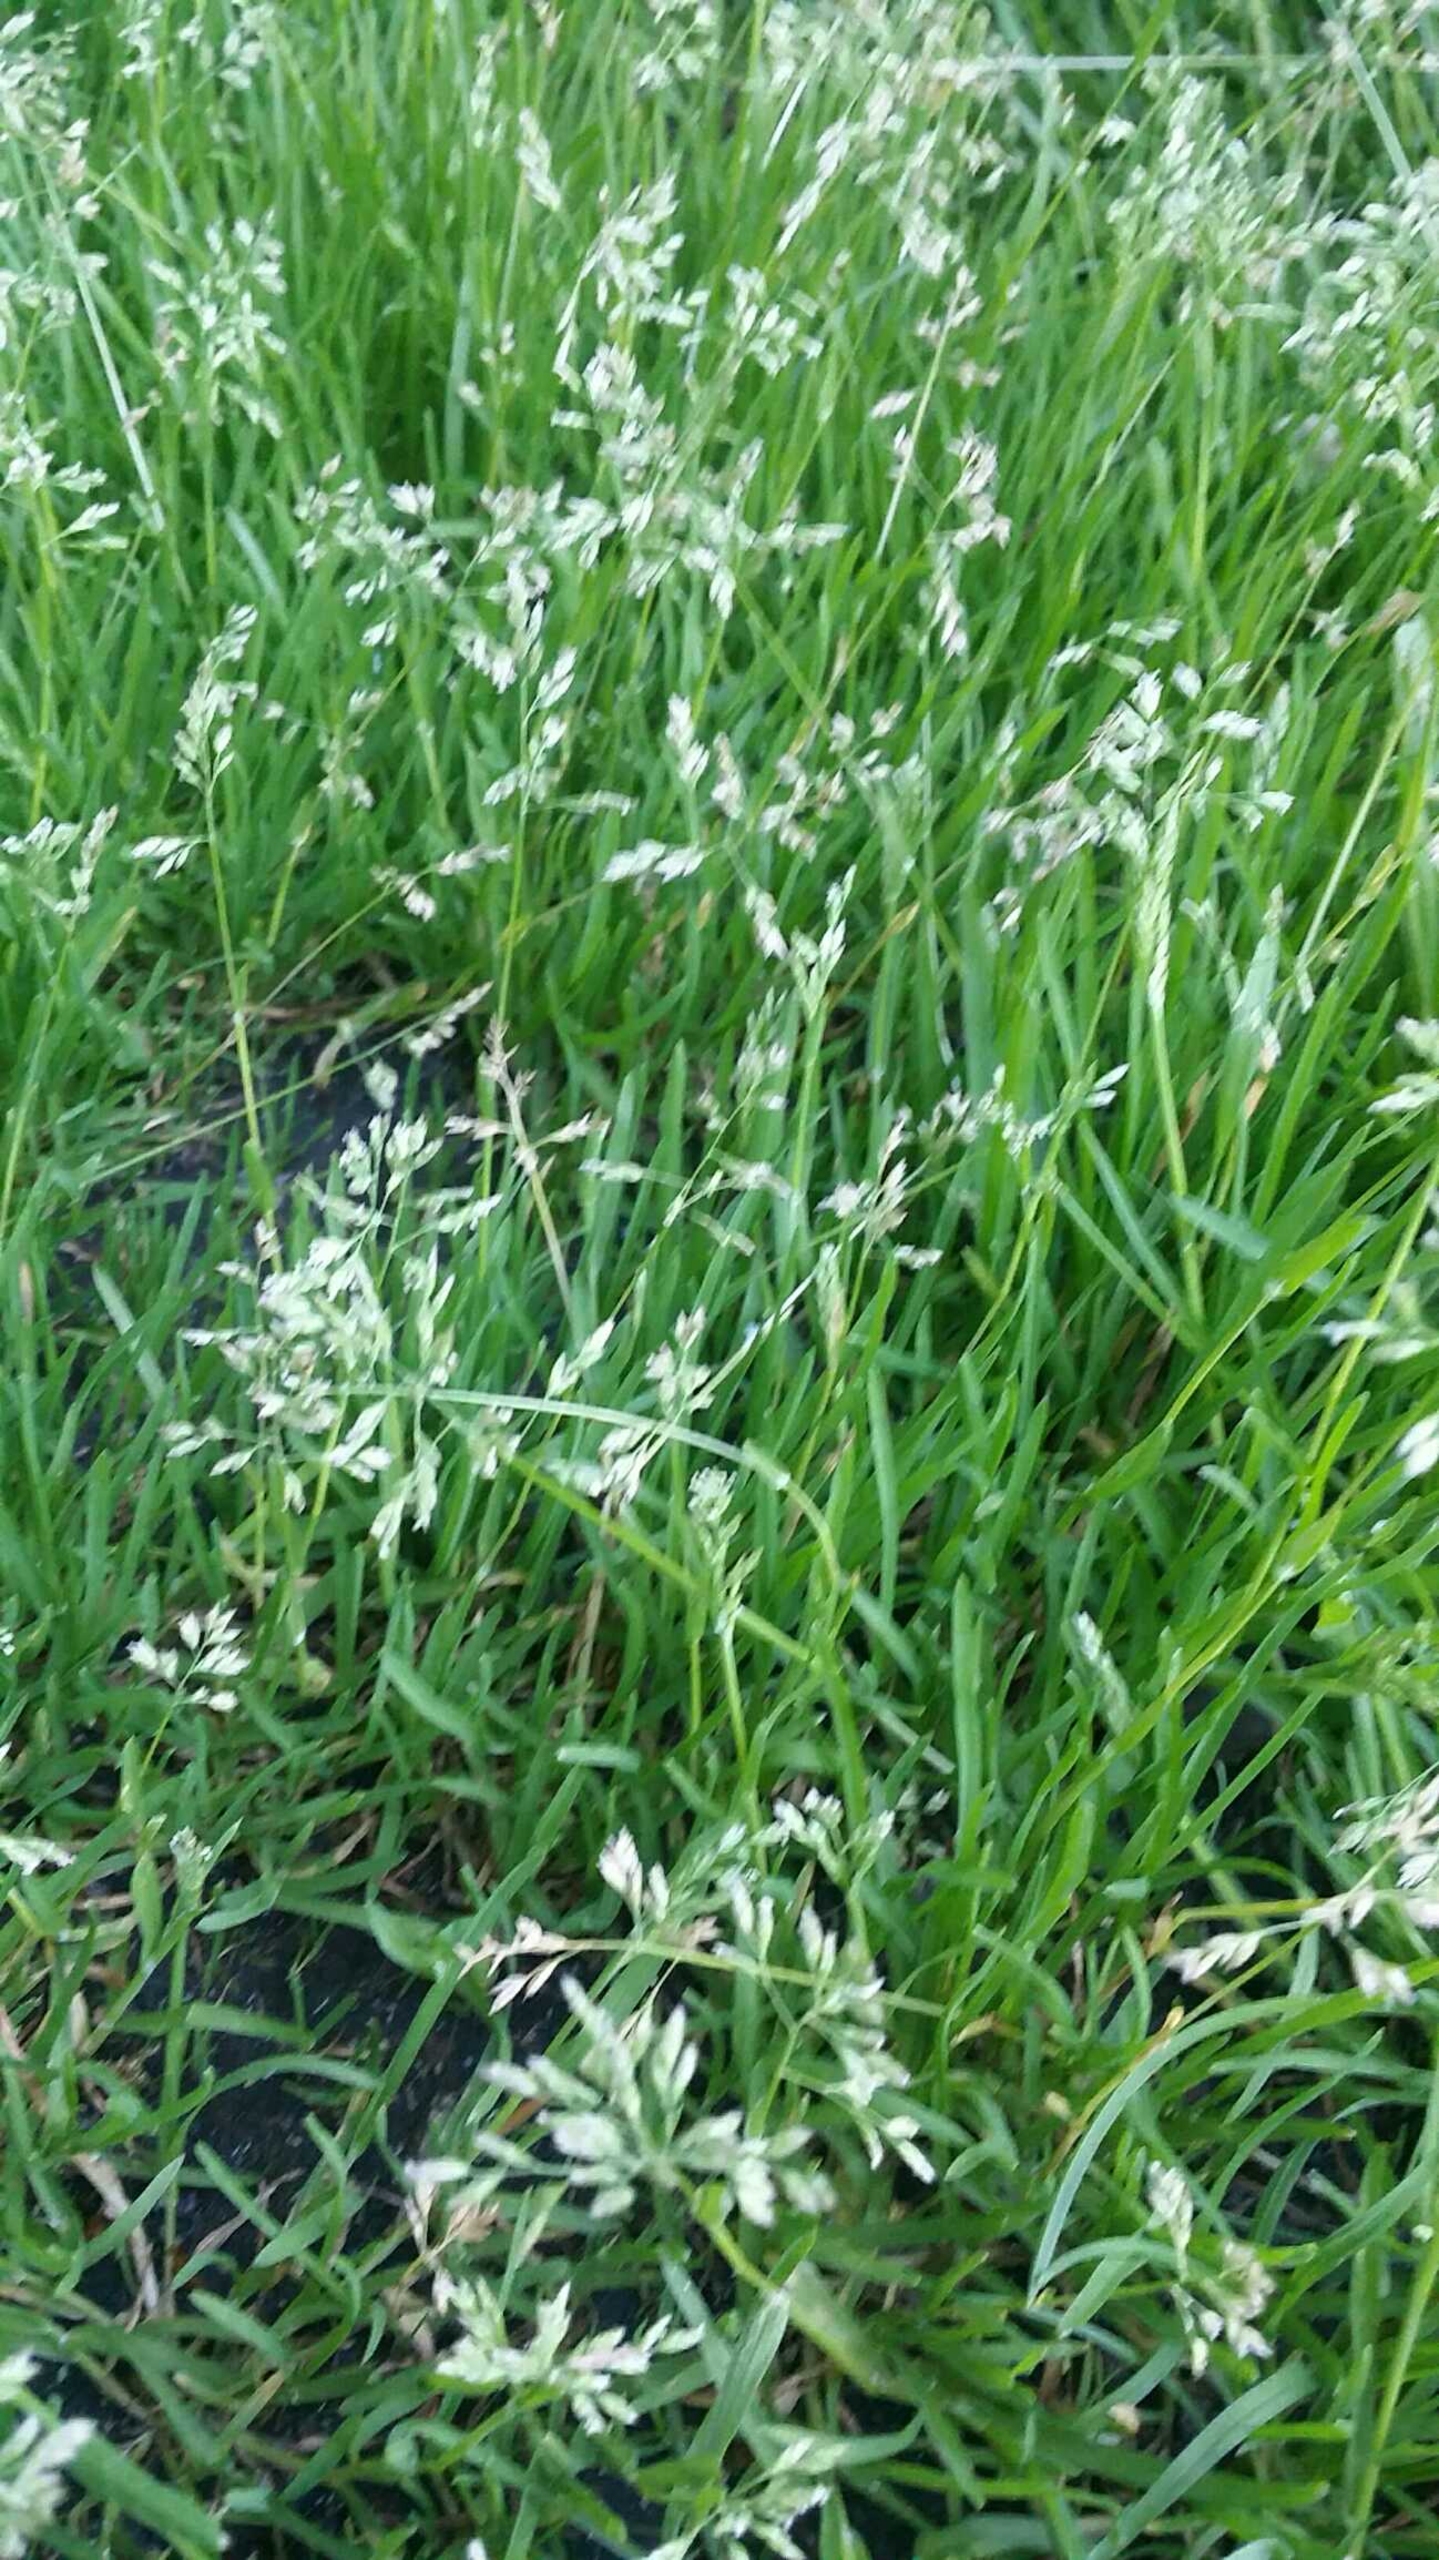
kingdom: Plantae
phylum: Tracheophyta
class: Liliopsida
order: Poales
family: Poaceae
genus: Poa
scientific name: Poa annua
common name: Enårig rapgræs
